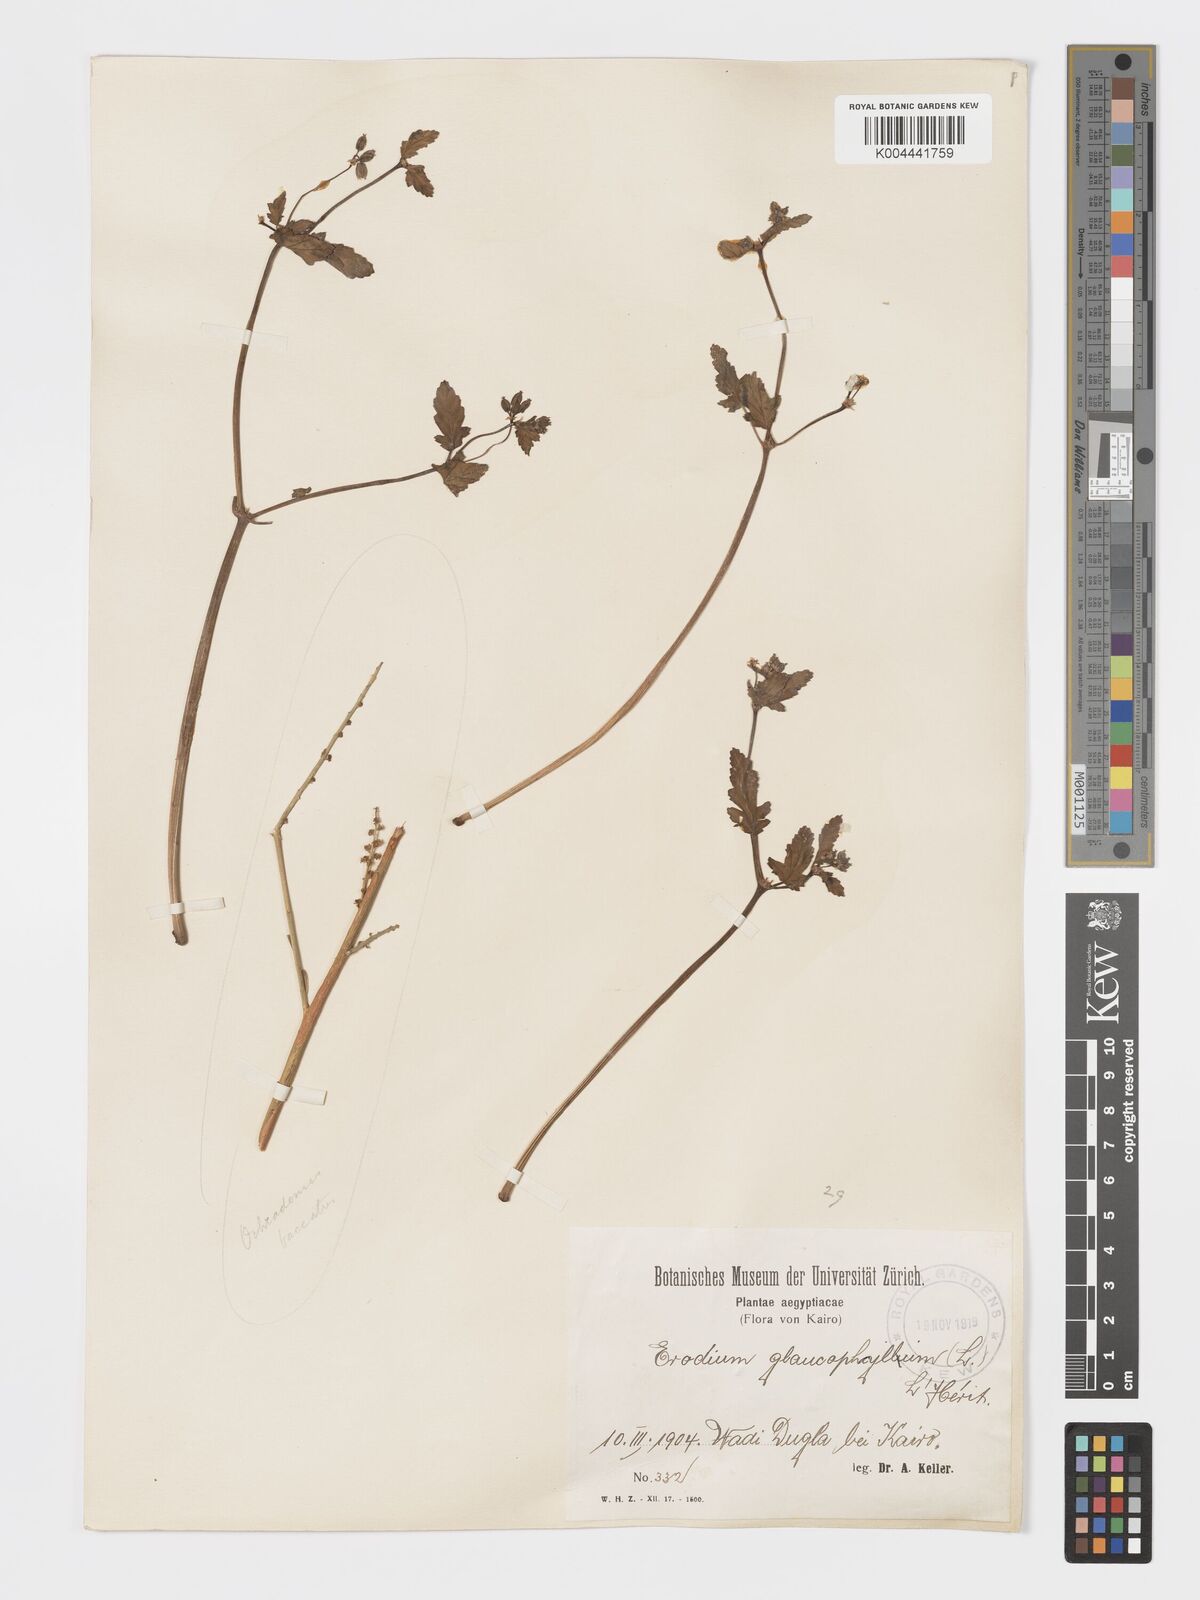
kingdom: Plantae
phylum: Tracheophyta
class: Magnoliopsida
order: Geraniales
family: Geraniaceae
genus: Erodium
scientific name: Erodium glaucophyllum
